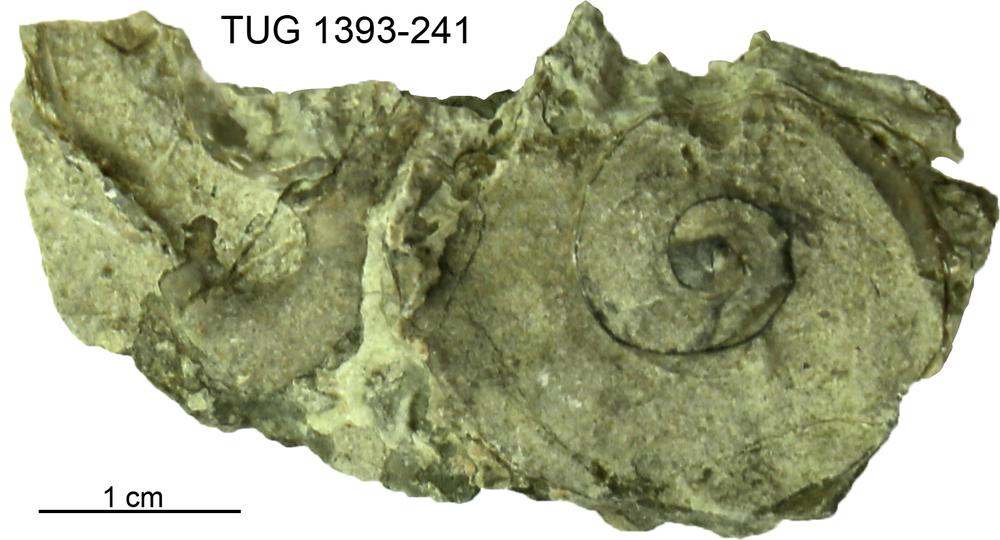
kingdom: Animalia
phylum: Mollusca
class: Gastropoda
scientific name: Gastropoda
